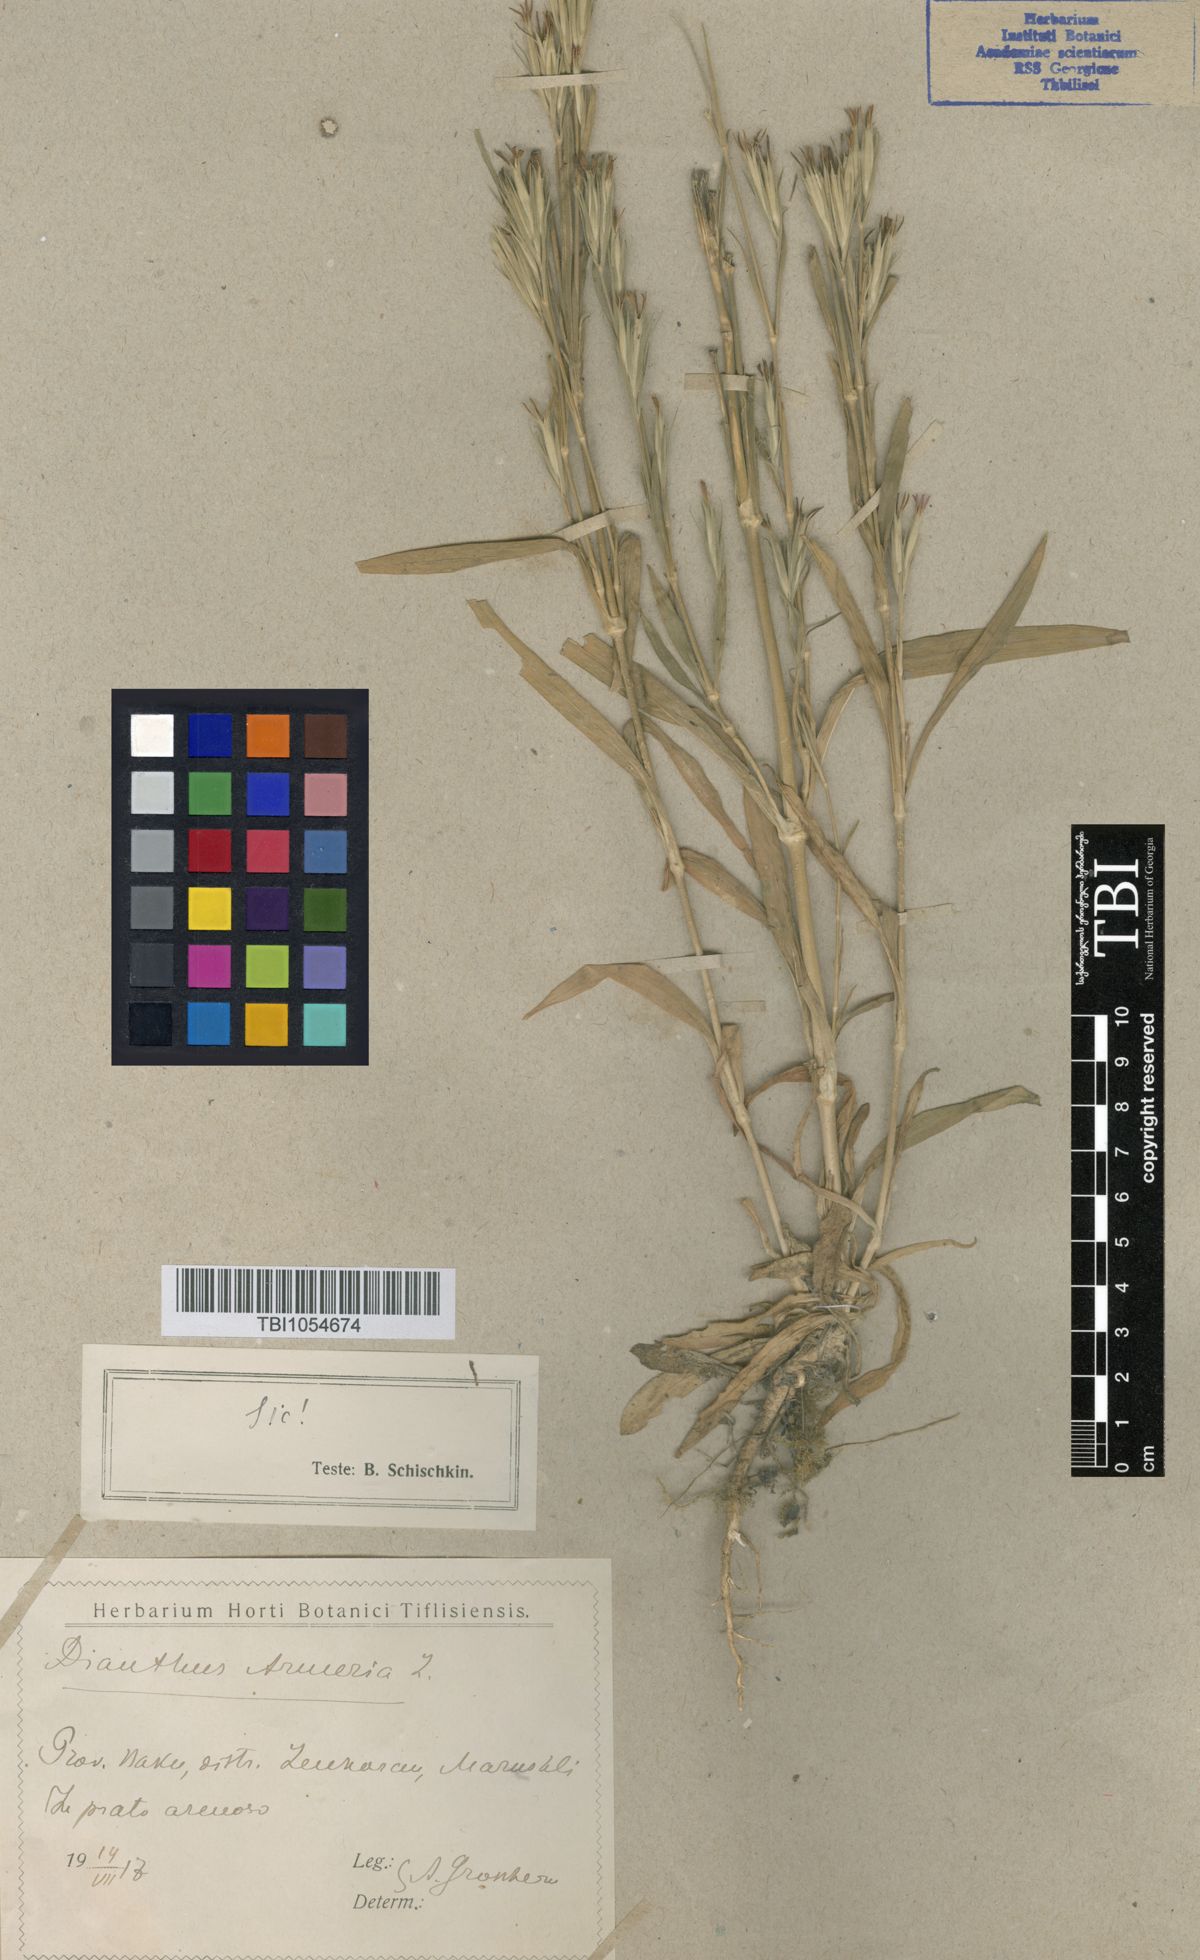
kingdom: Plantae
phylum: Tracheophyta
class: Magnoliopsida
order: Caryophyllales
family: Caryophyllaceae
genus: Dianthus
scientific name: Dianthus armeria
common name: Deptford pink
